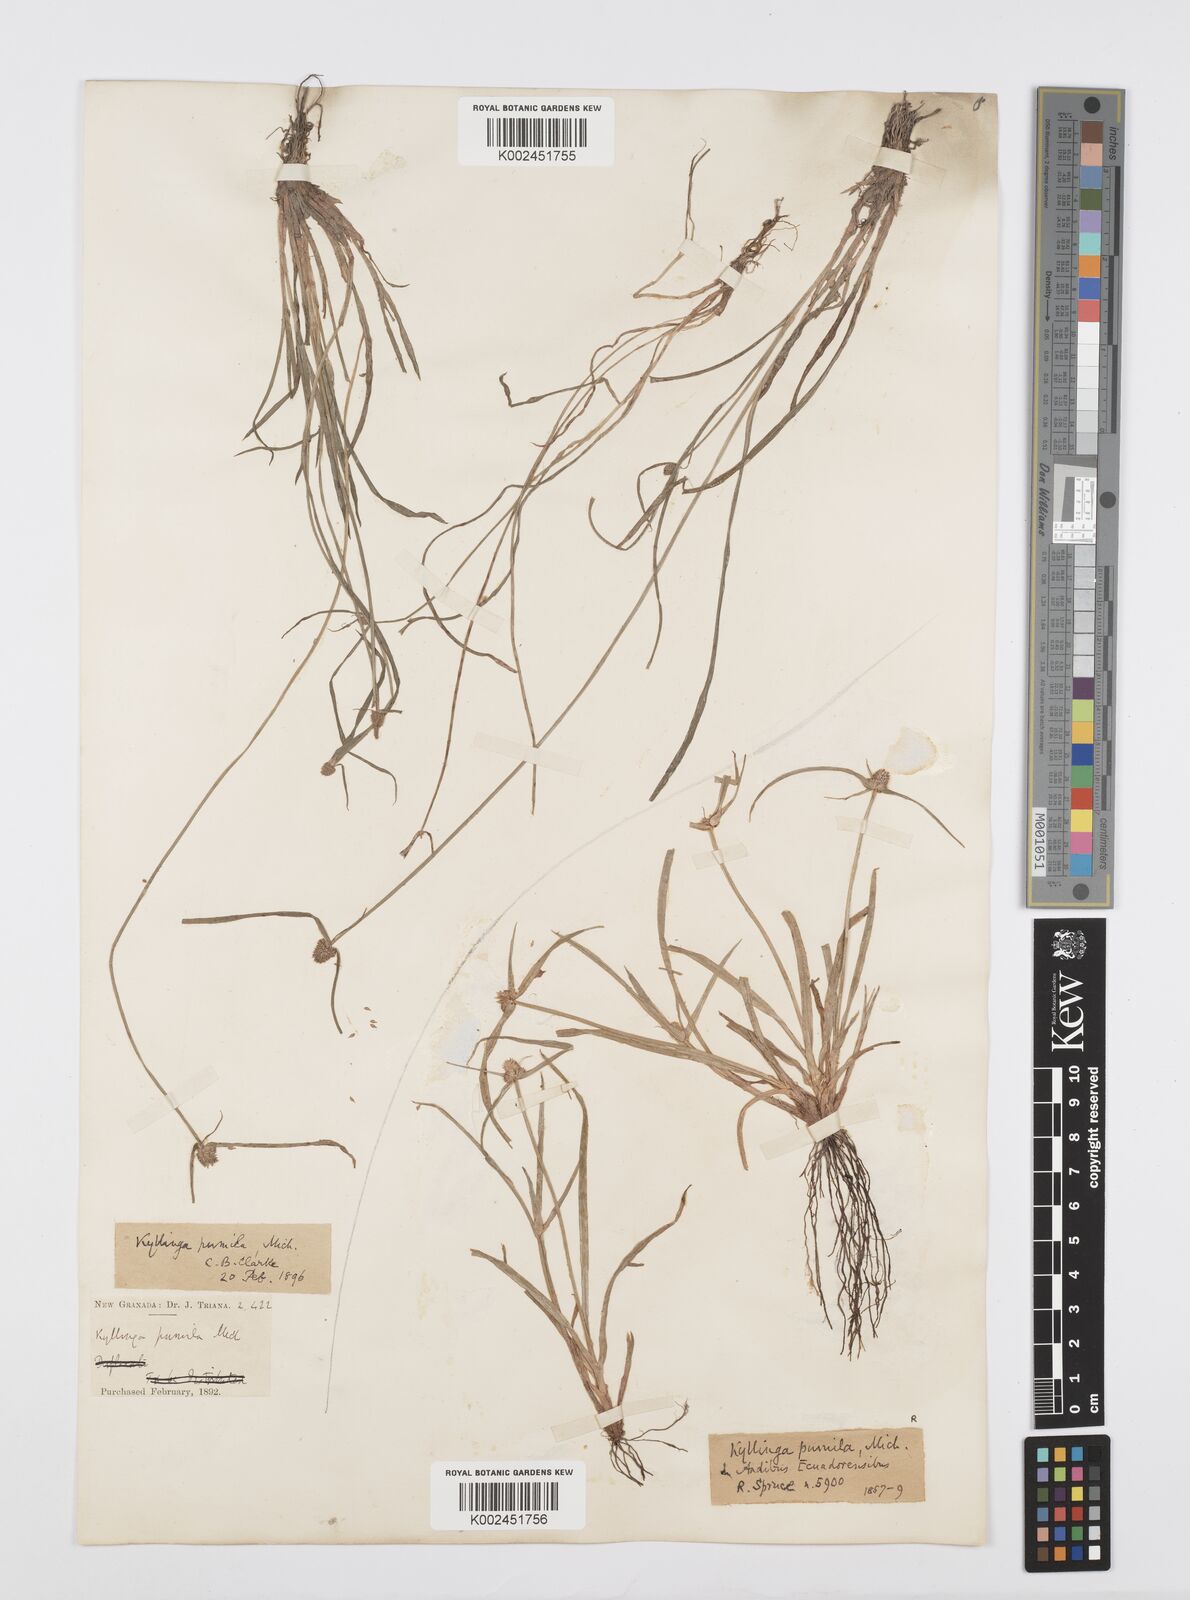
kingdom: Plantae
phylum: Tracheophyta
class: Liliopsida
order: Poales
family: Cyperaceae
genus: Cyperus
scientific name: Cyperus
